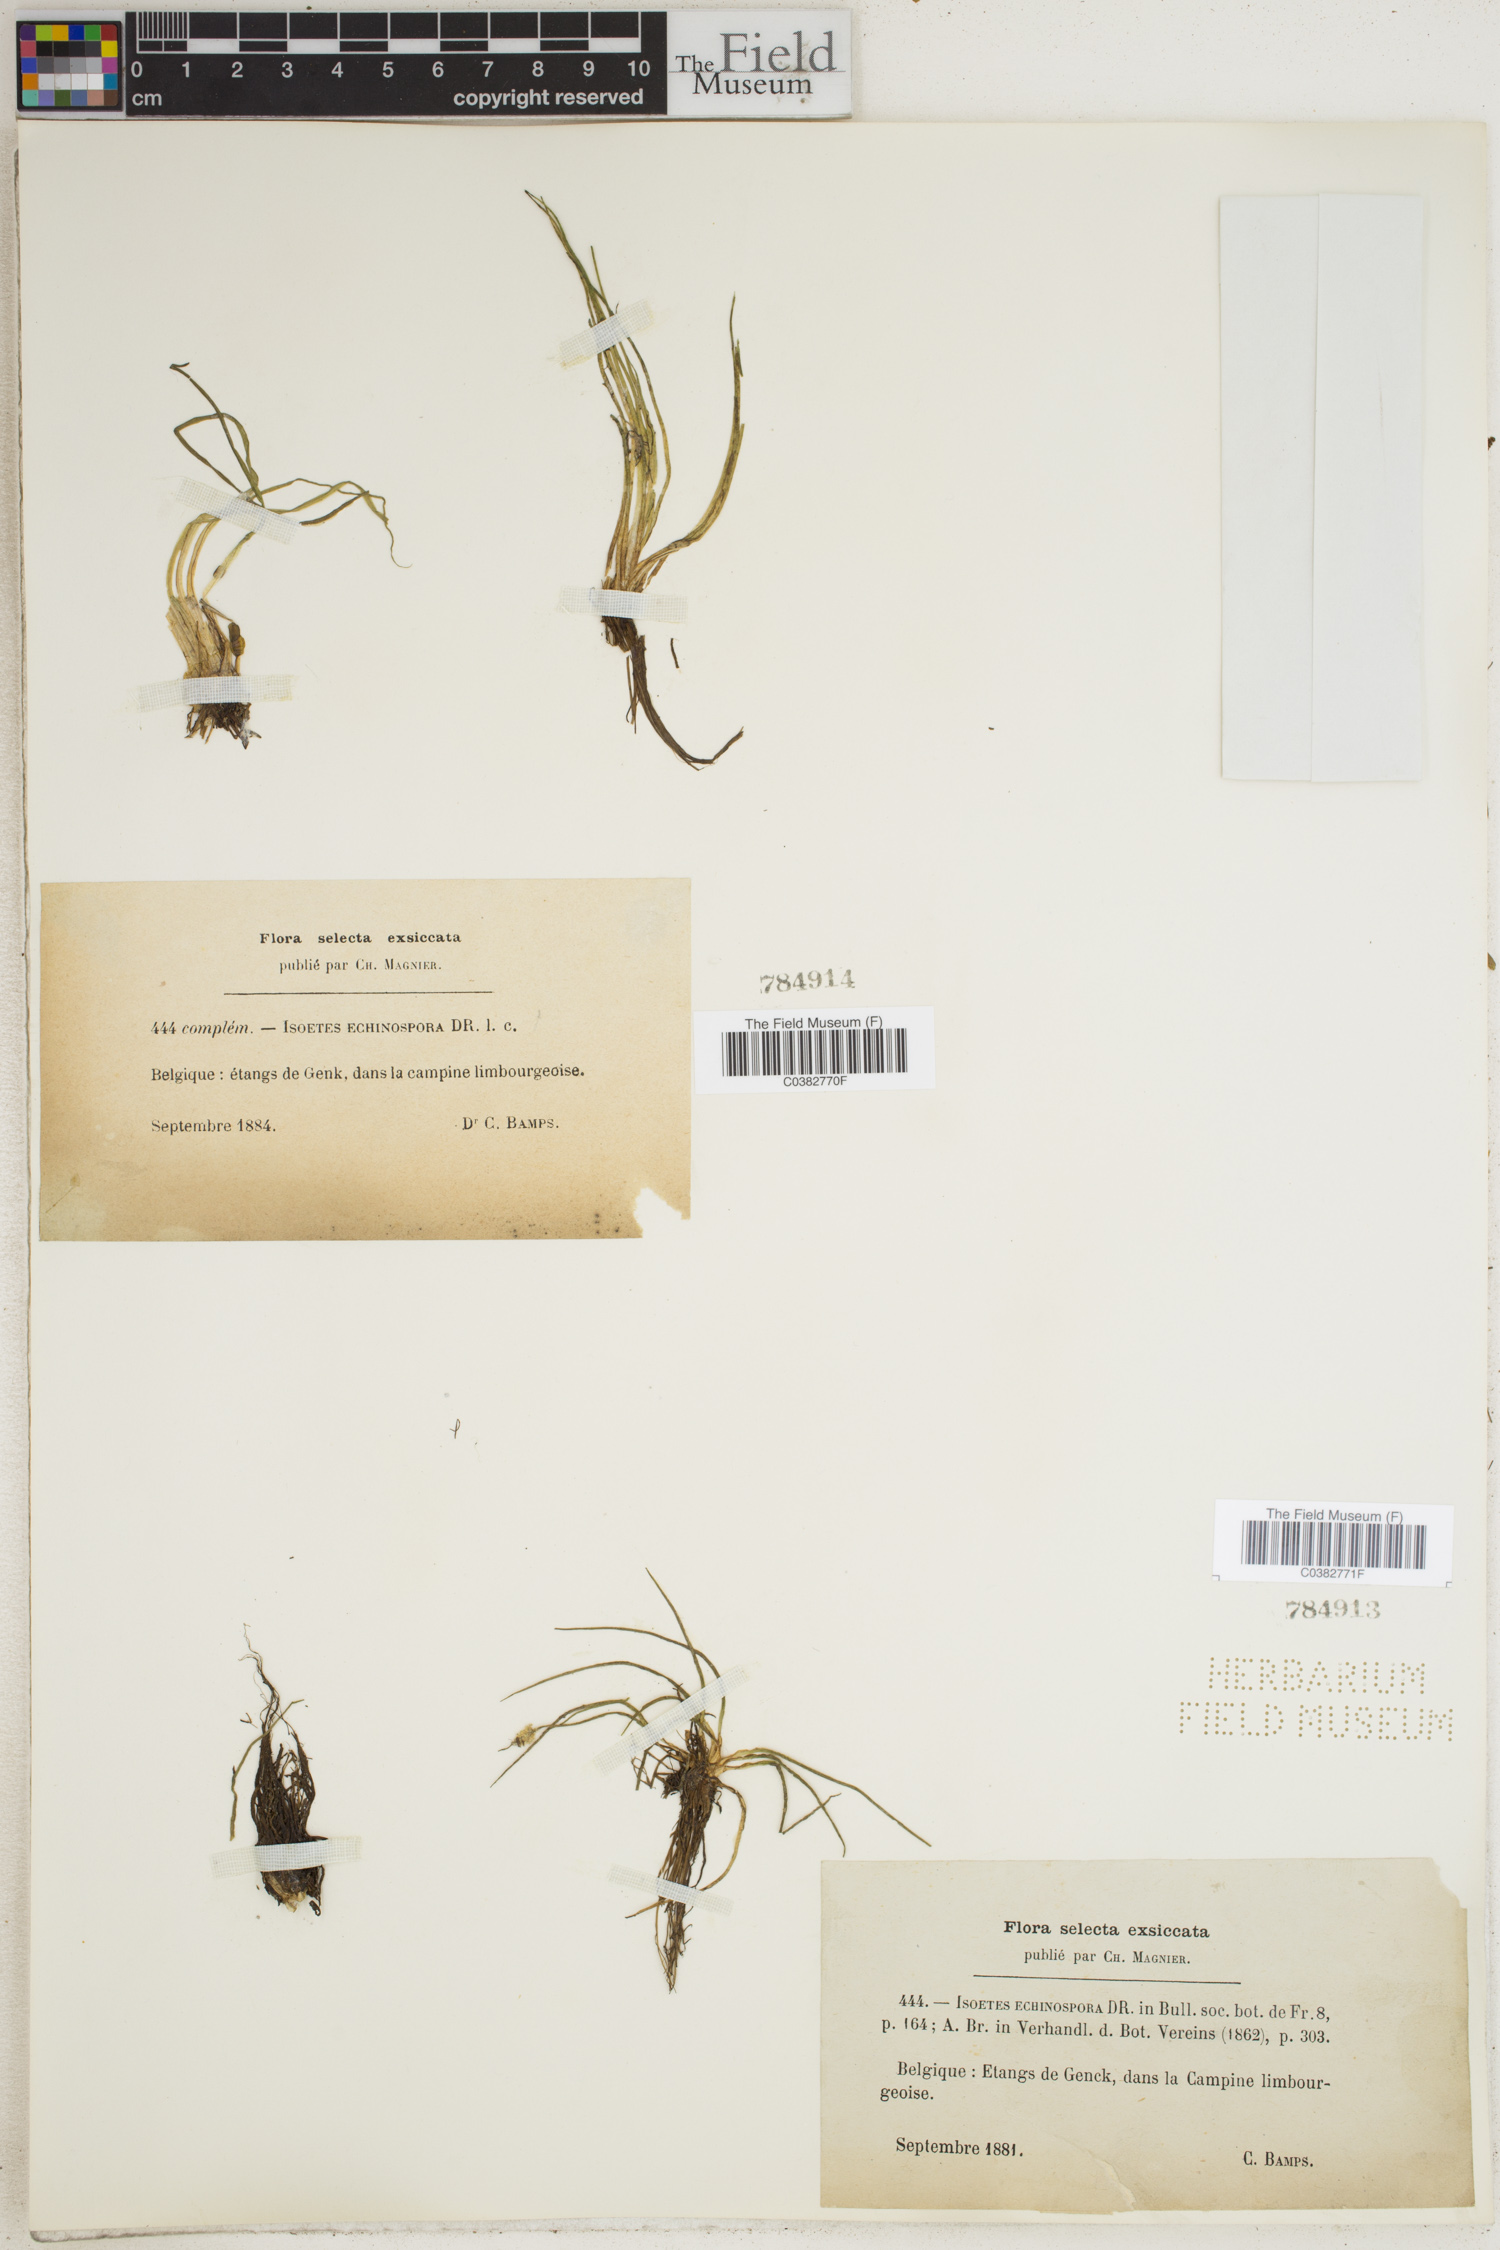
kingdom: Plantae
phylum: Tracheophyta
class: Lycopodiopsida
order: Isoetales
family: Isoetaceae
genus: Isoetes
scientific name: Isoetes echinospora
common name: Spring quillwort
